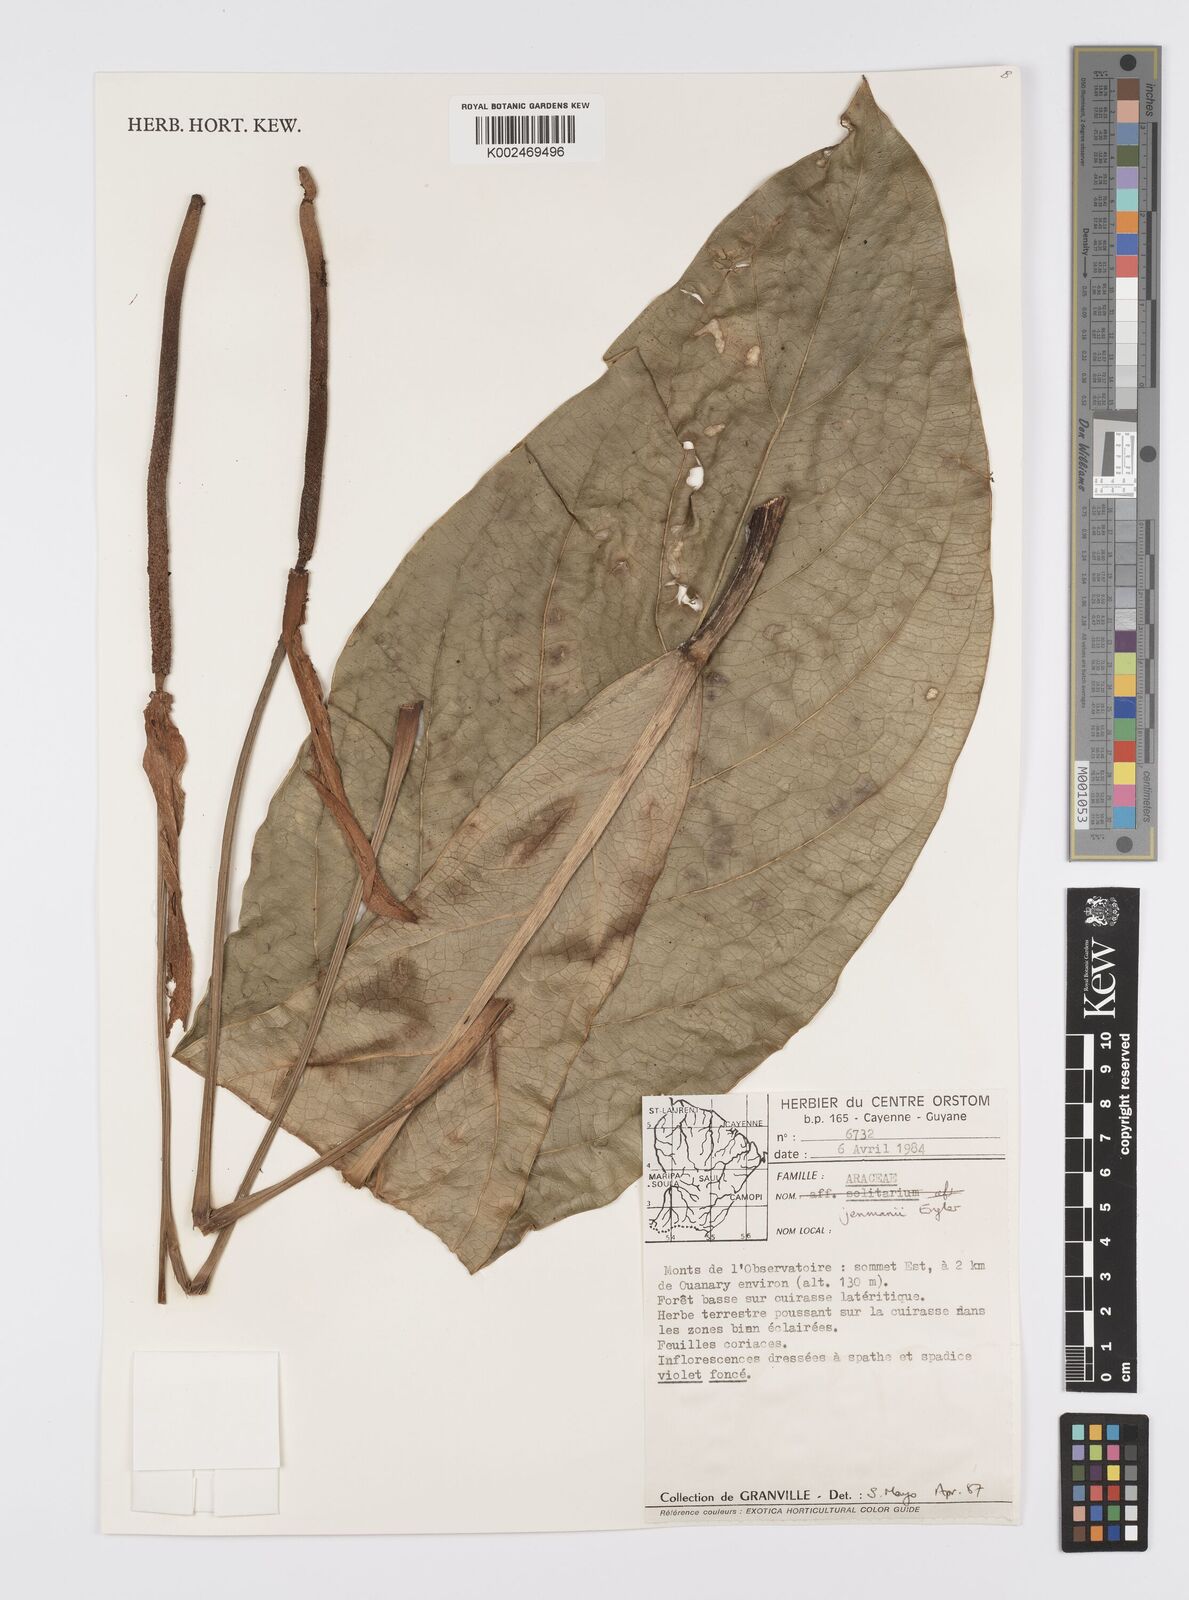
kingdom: Plantae
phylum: Tracheophyta
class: Liliopsida
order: Alismatales
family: Araceae
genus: Anthurium
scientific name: Anthurium jenmanii
